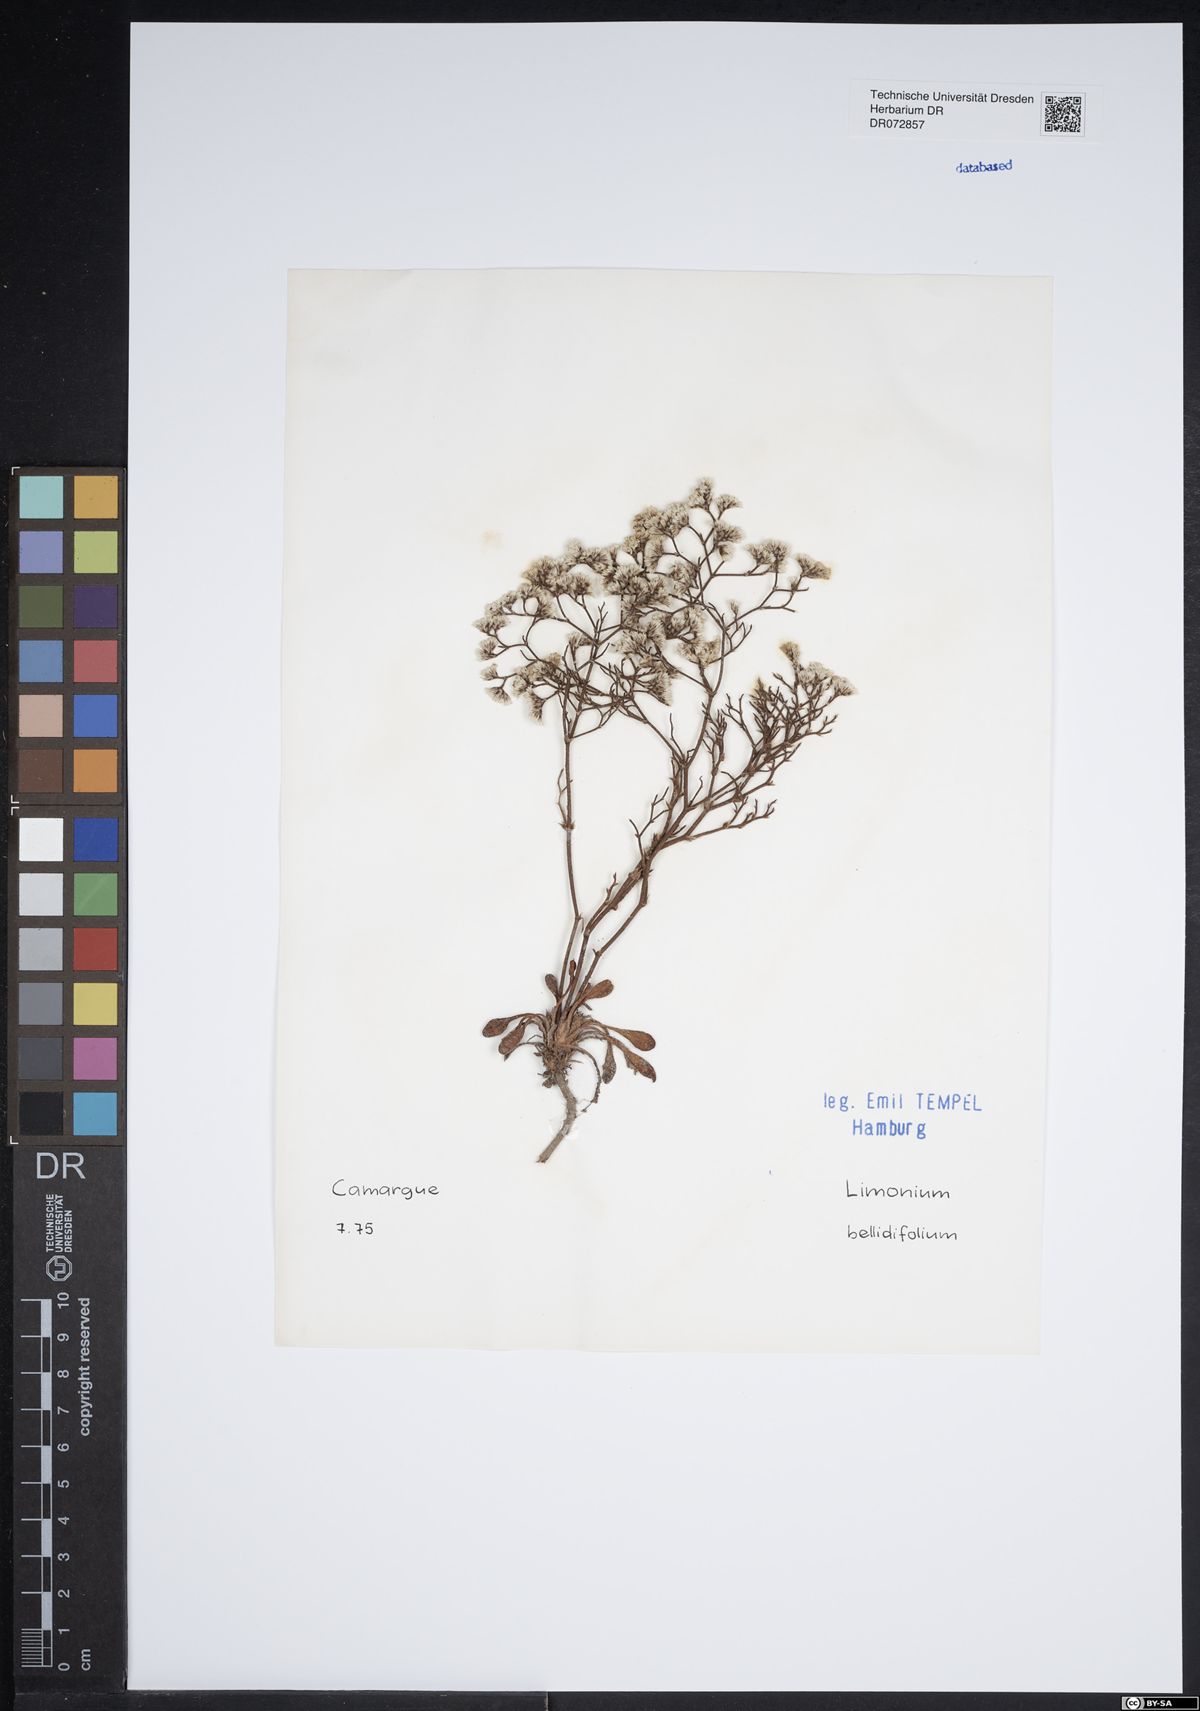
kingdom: Plantae
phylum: Tracheophyta
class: Magnoliopsida
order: Caryophyllales
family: Plumbaginaceae
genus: Limonium
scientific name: Limonium bellidifolium
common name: Matted sea-lavender
